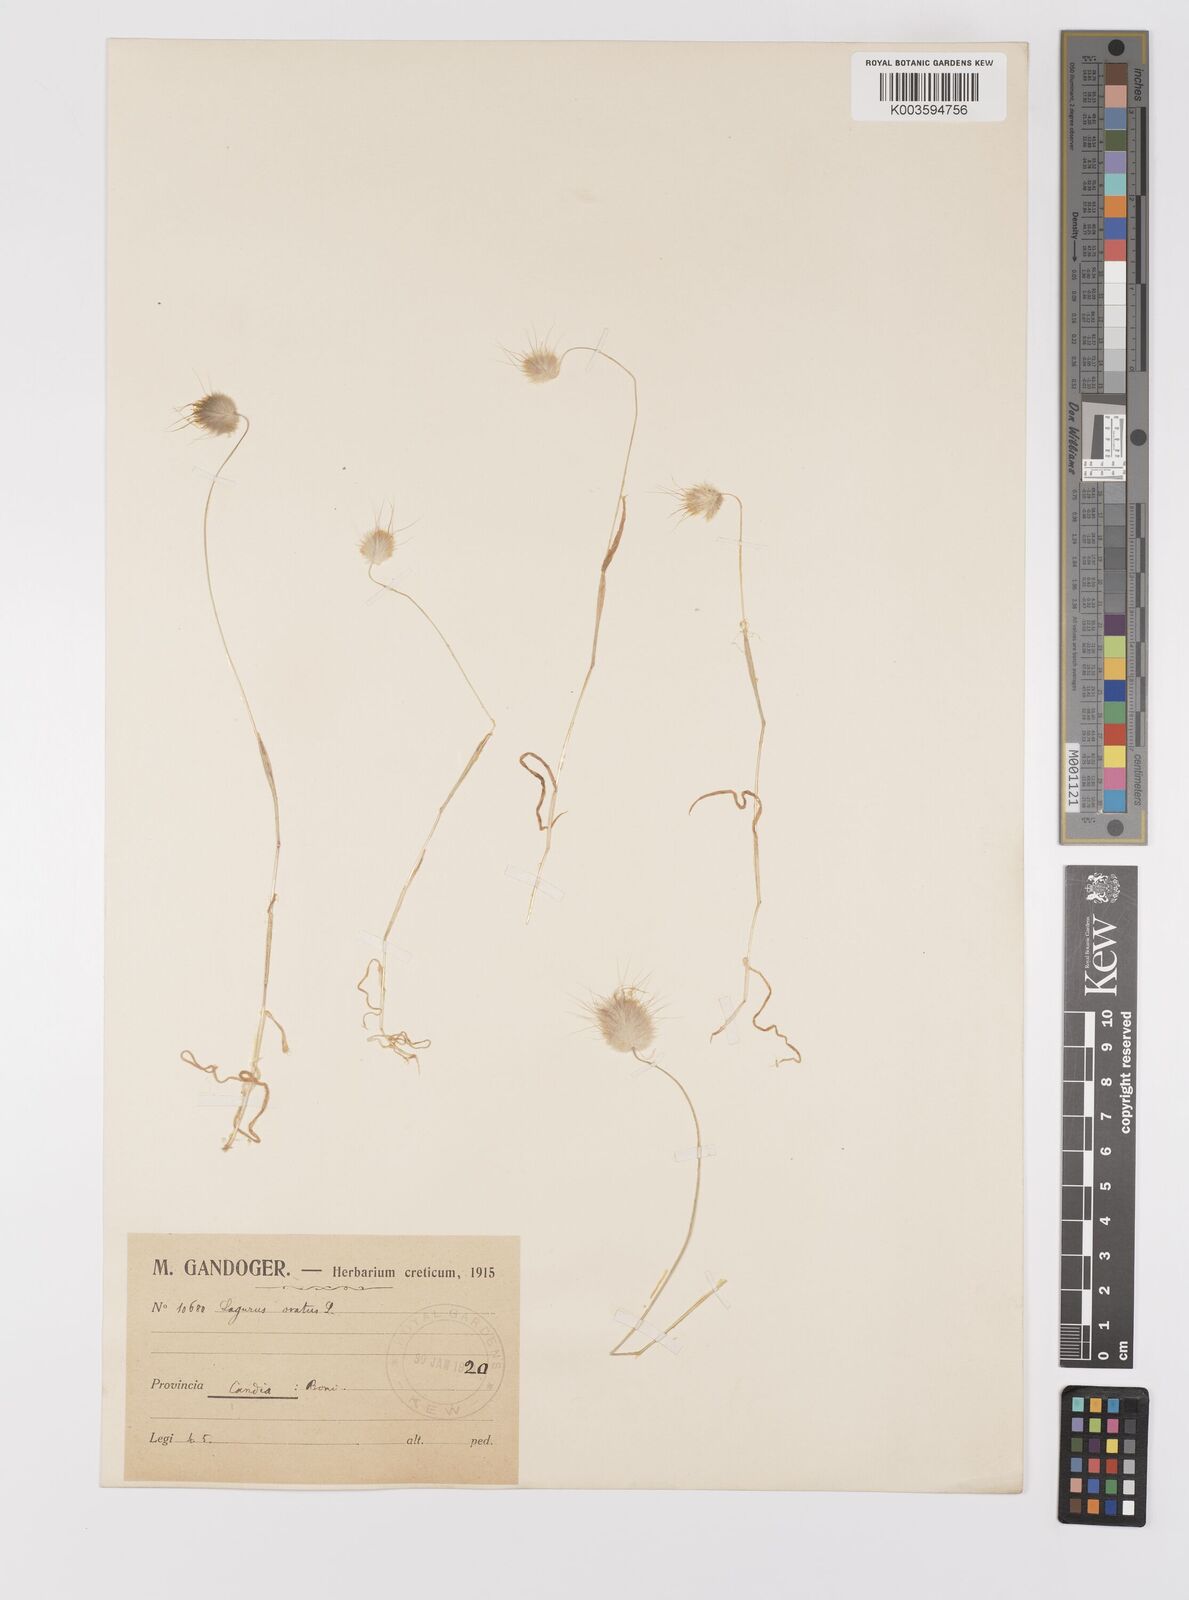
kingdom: Plantae
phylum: Tracheophyta
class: Liliopsida
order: Poales
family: Poaceae
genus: Lagurus
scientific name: Lagurus ovatus
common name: Hare's-tail
